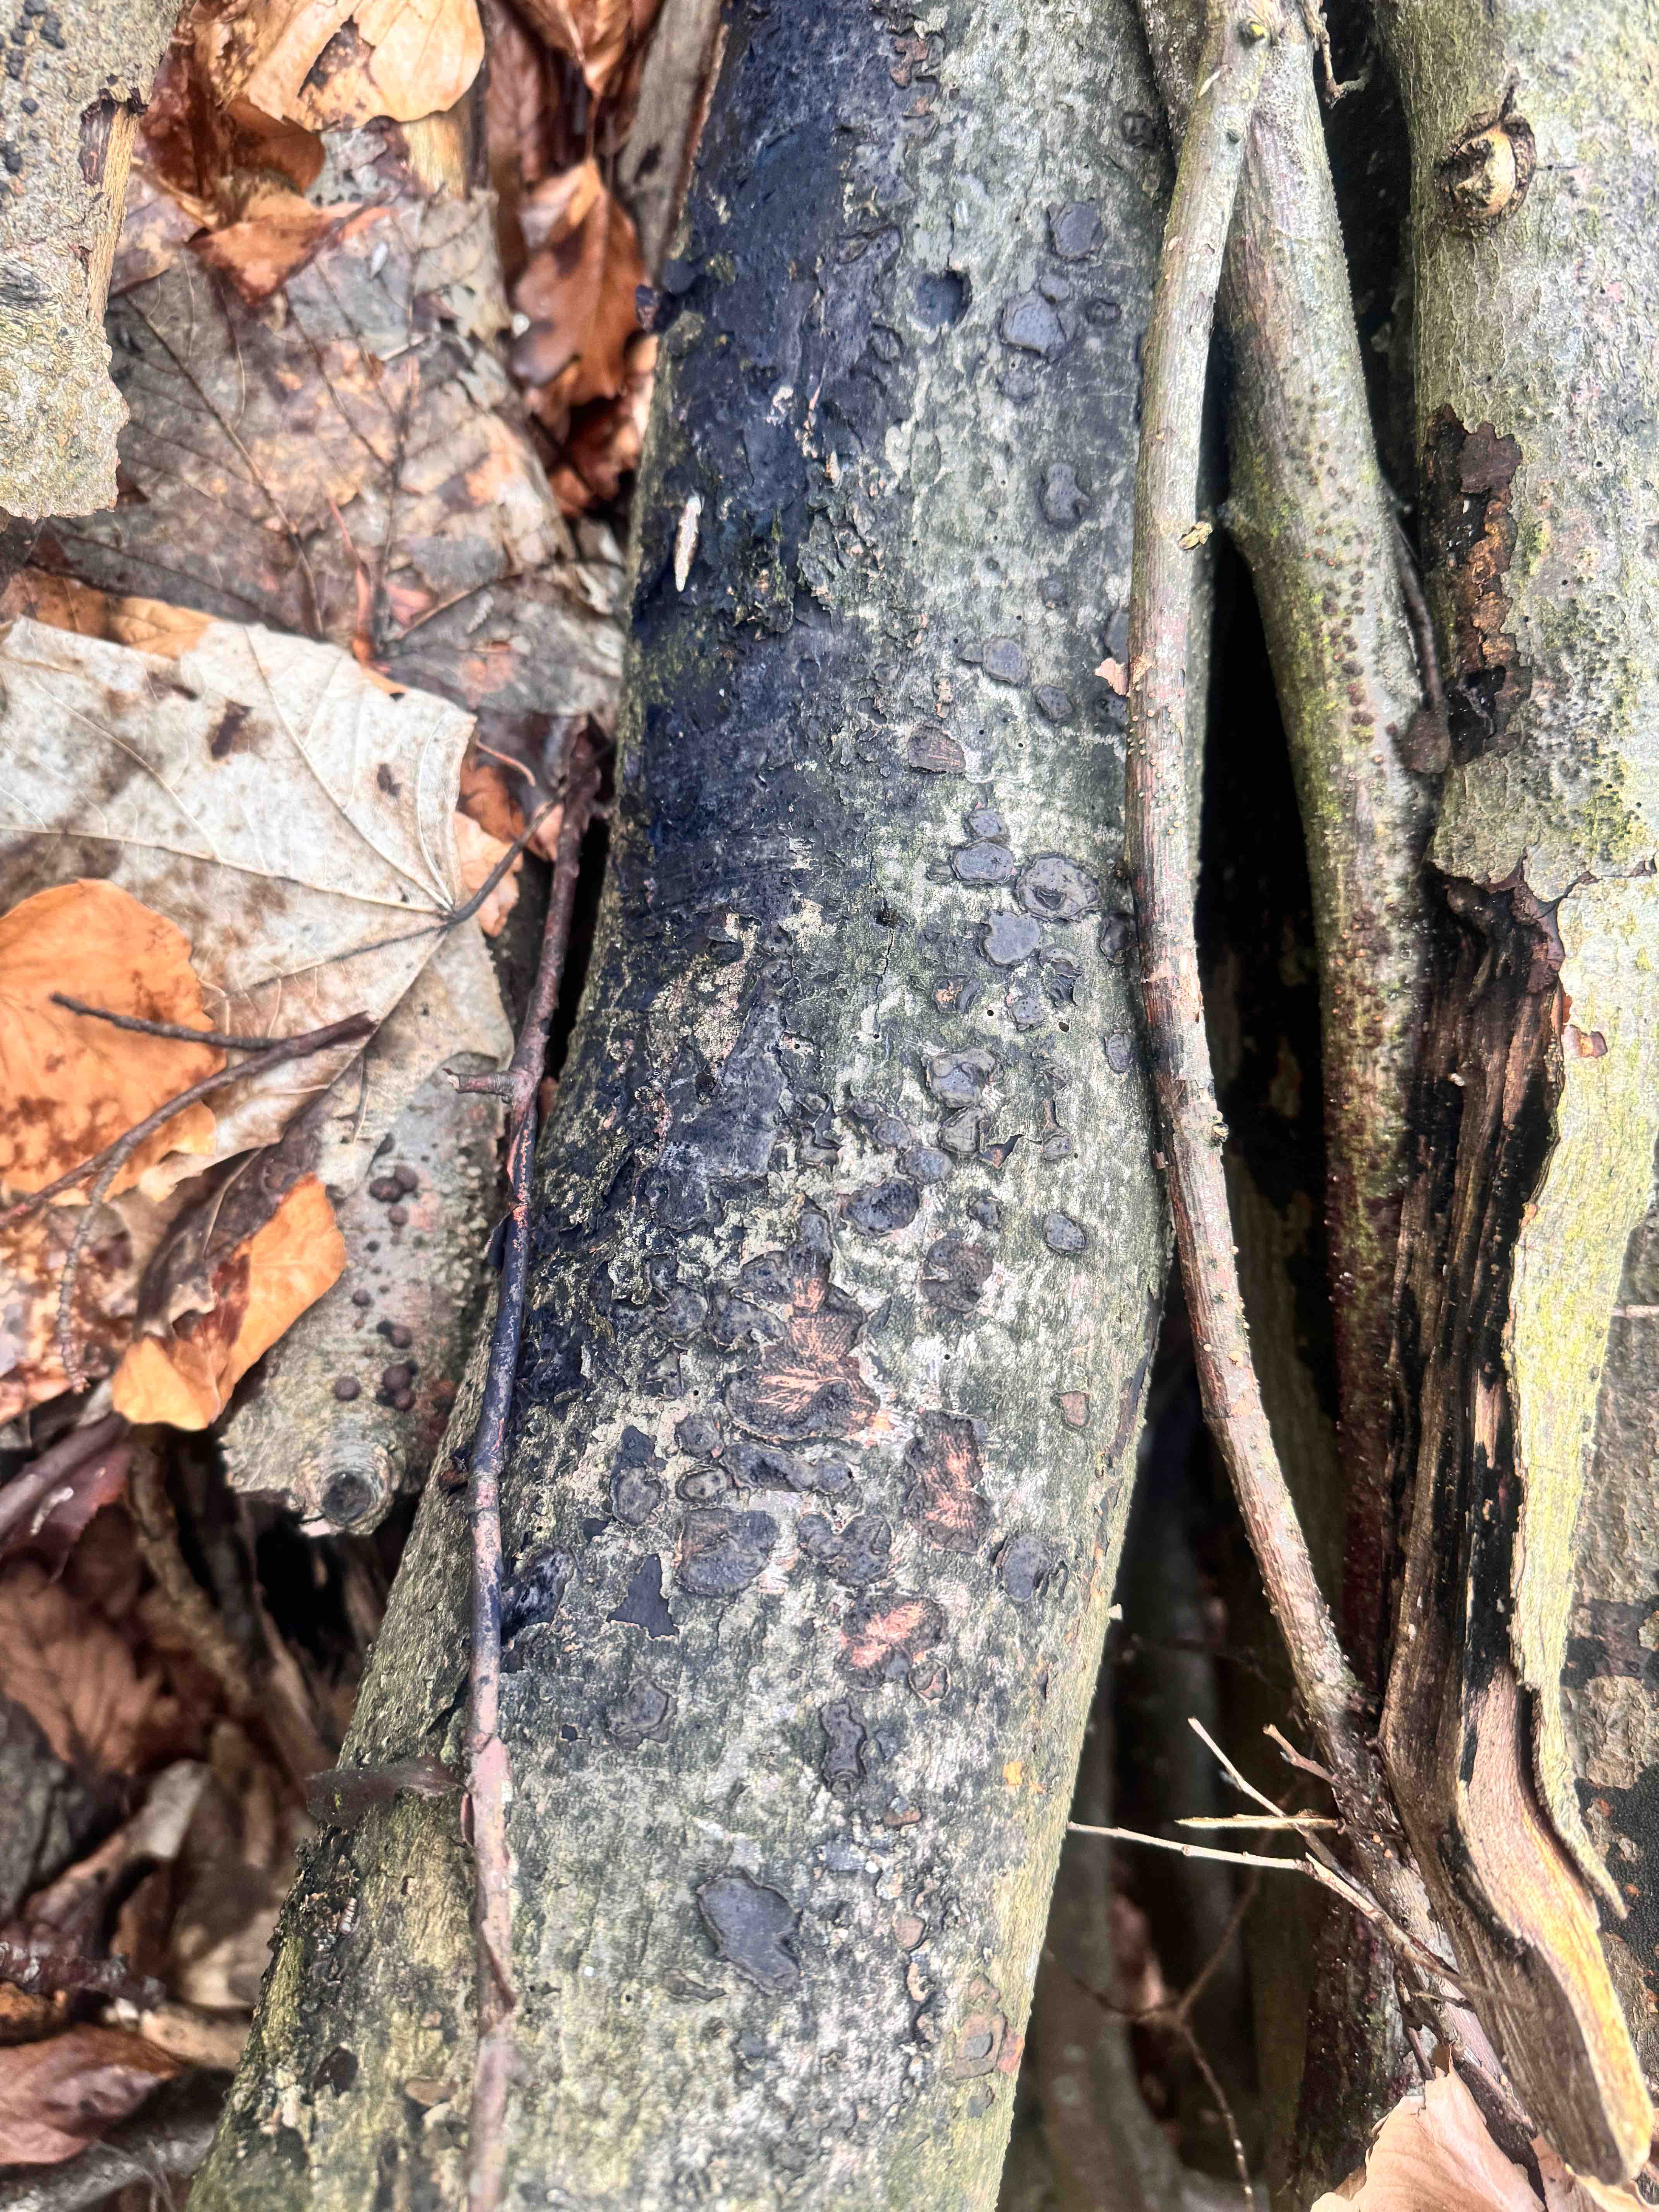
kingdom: Fungi
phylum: Ascomycota
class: Sordariomycetes
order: Xylariales
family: Graphostromataceae
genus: Biscogniauxia
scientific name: Biscogniauxia nummularia
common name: bøge-kulskive
